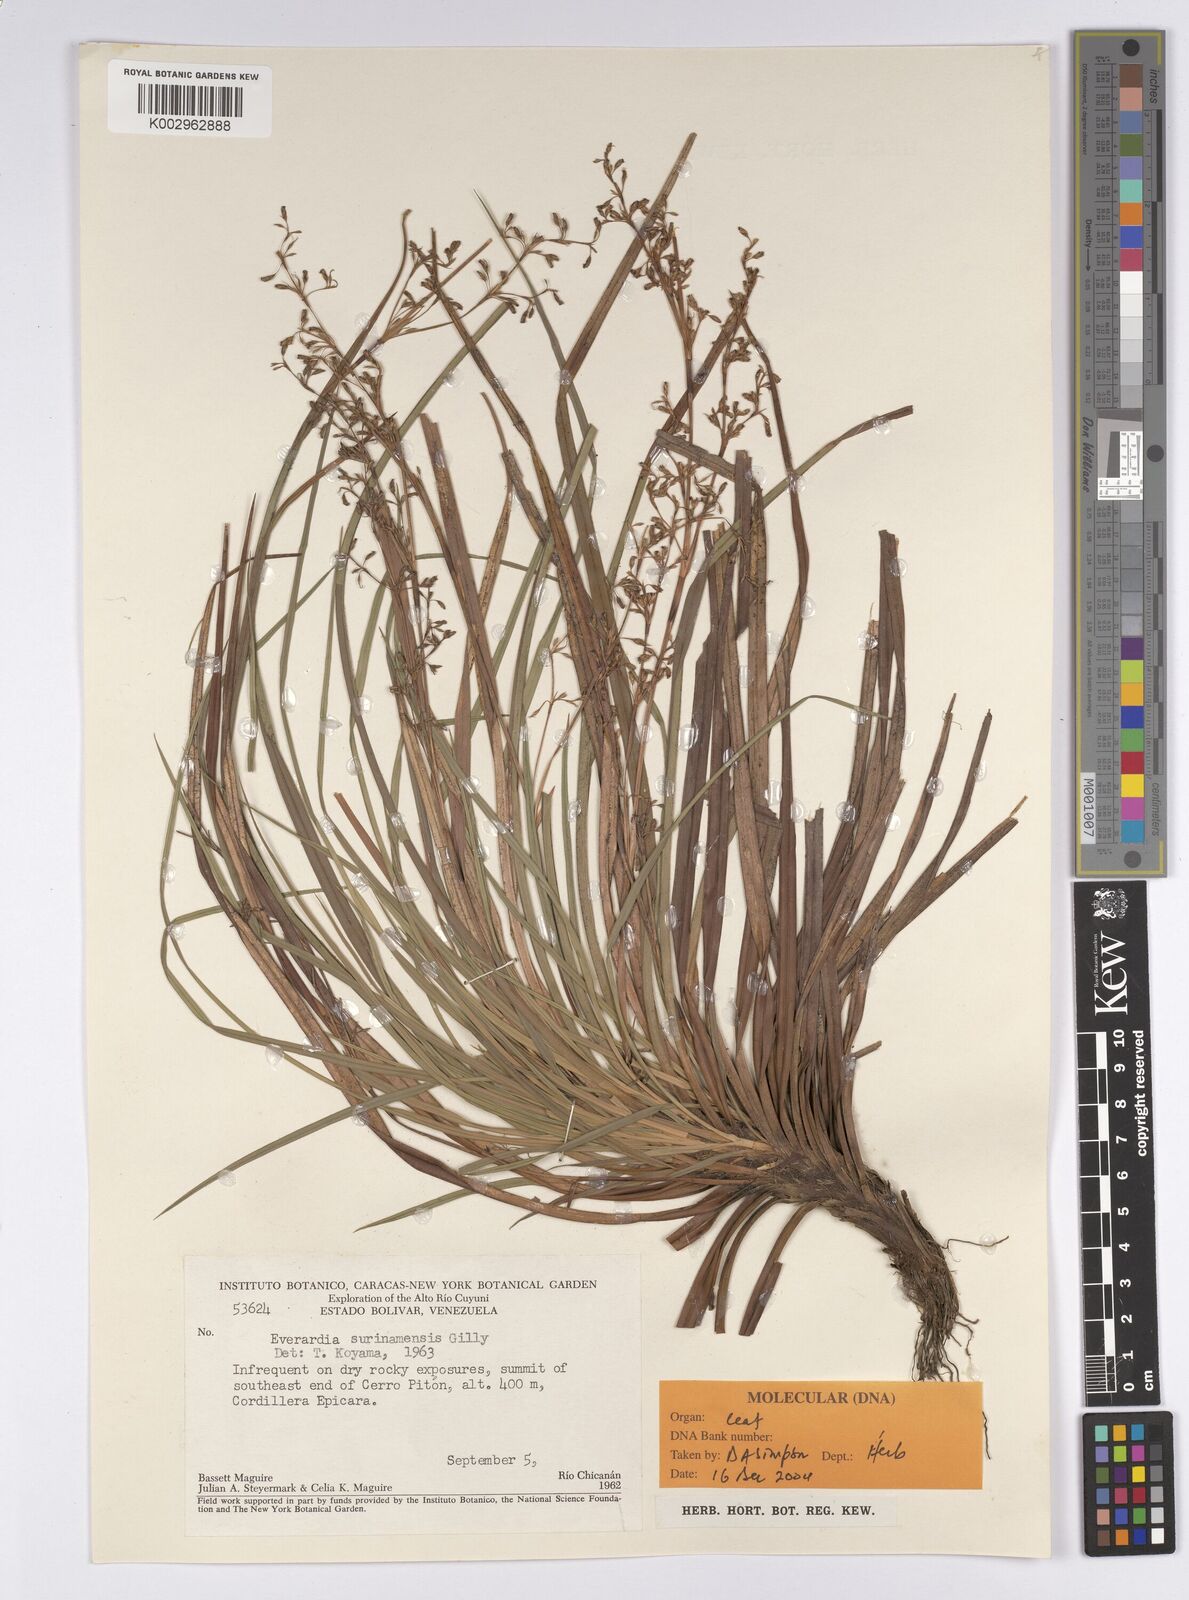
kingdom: Plantae
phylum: Tracheophyta
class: Liliopsida
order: Poales
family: Cyperaceae
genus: Cephalocarpus
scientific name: Cephalocarpus montanus
